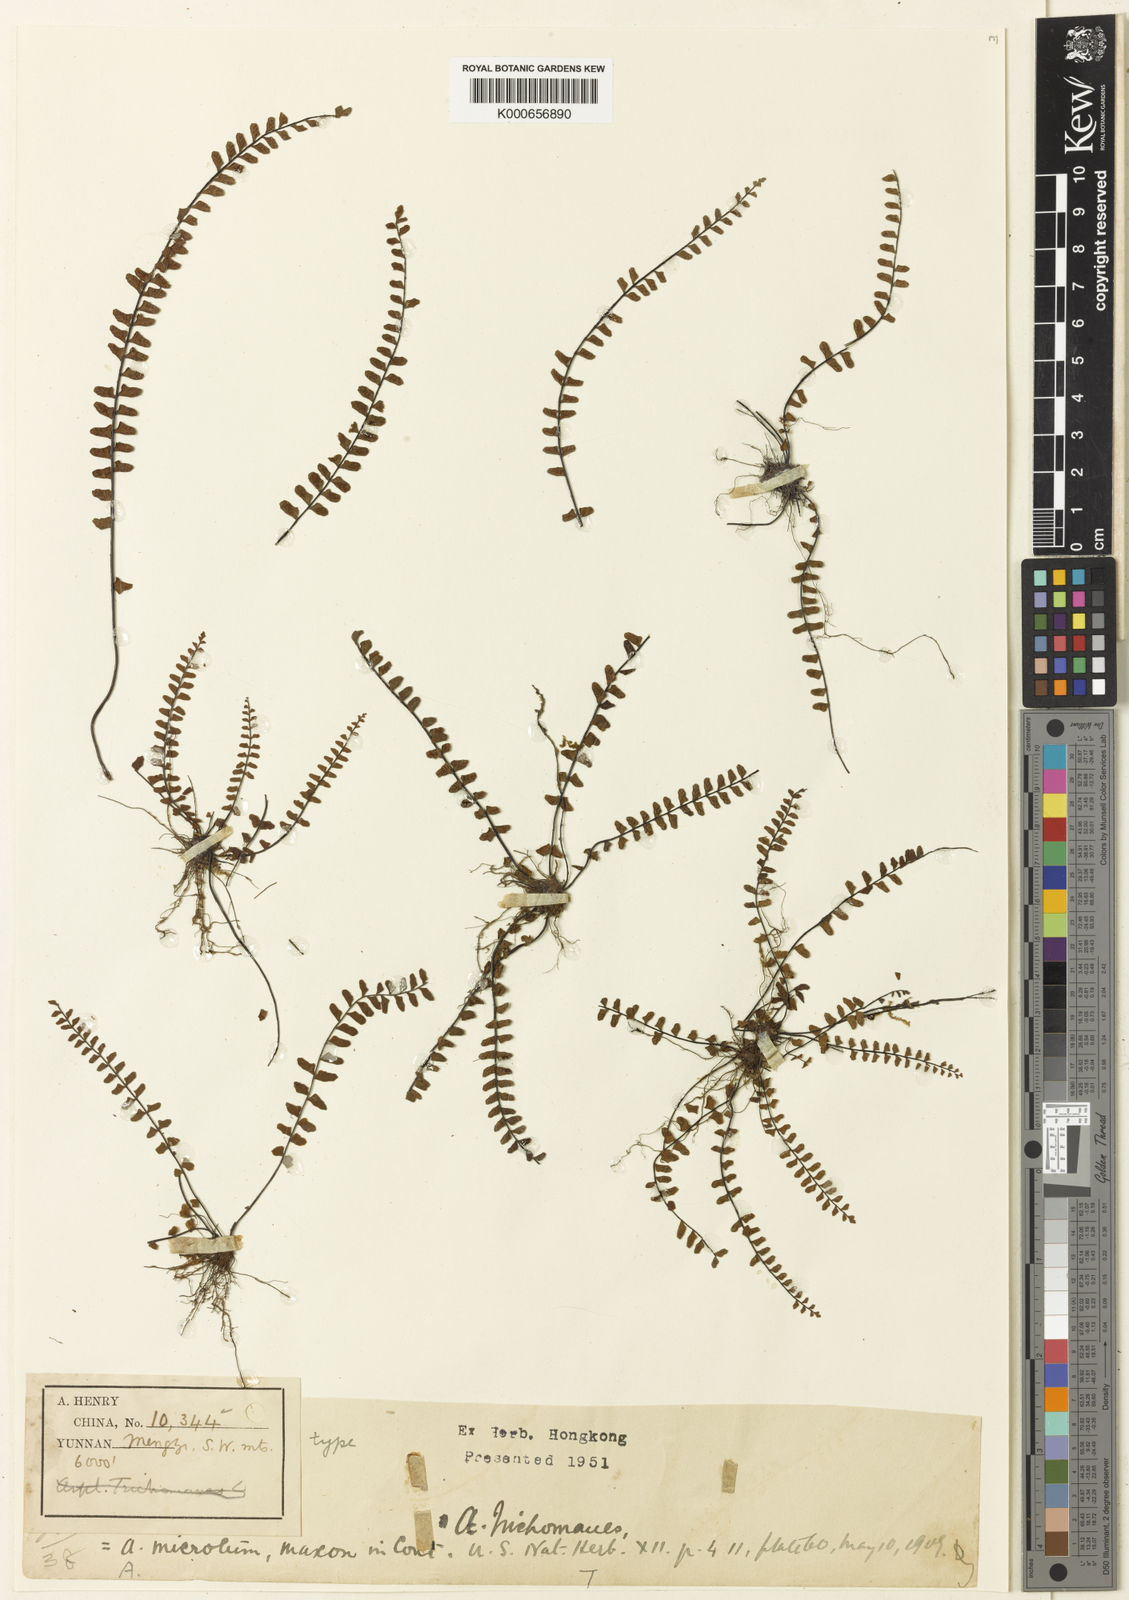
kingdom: Plantae
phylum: Tracheophyta
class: Polypodiopsida
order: Polypodiales
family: Aspleniaceae
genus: Asplenium
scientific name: Asplenium microtum
